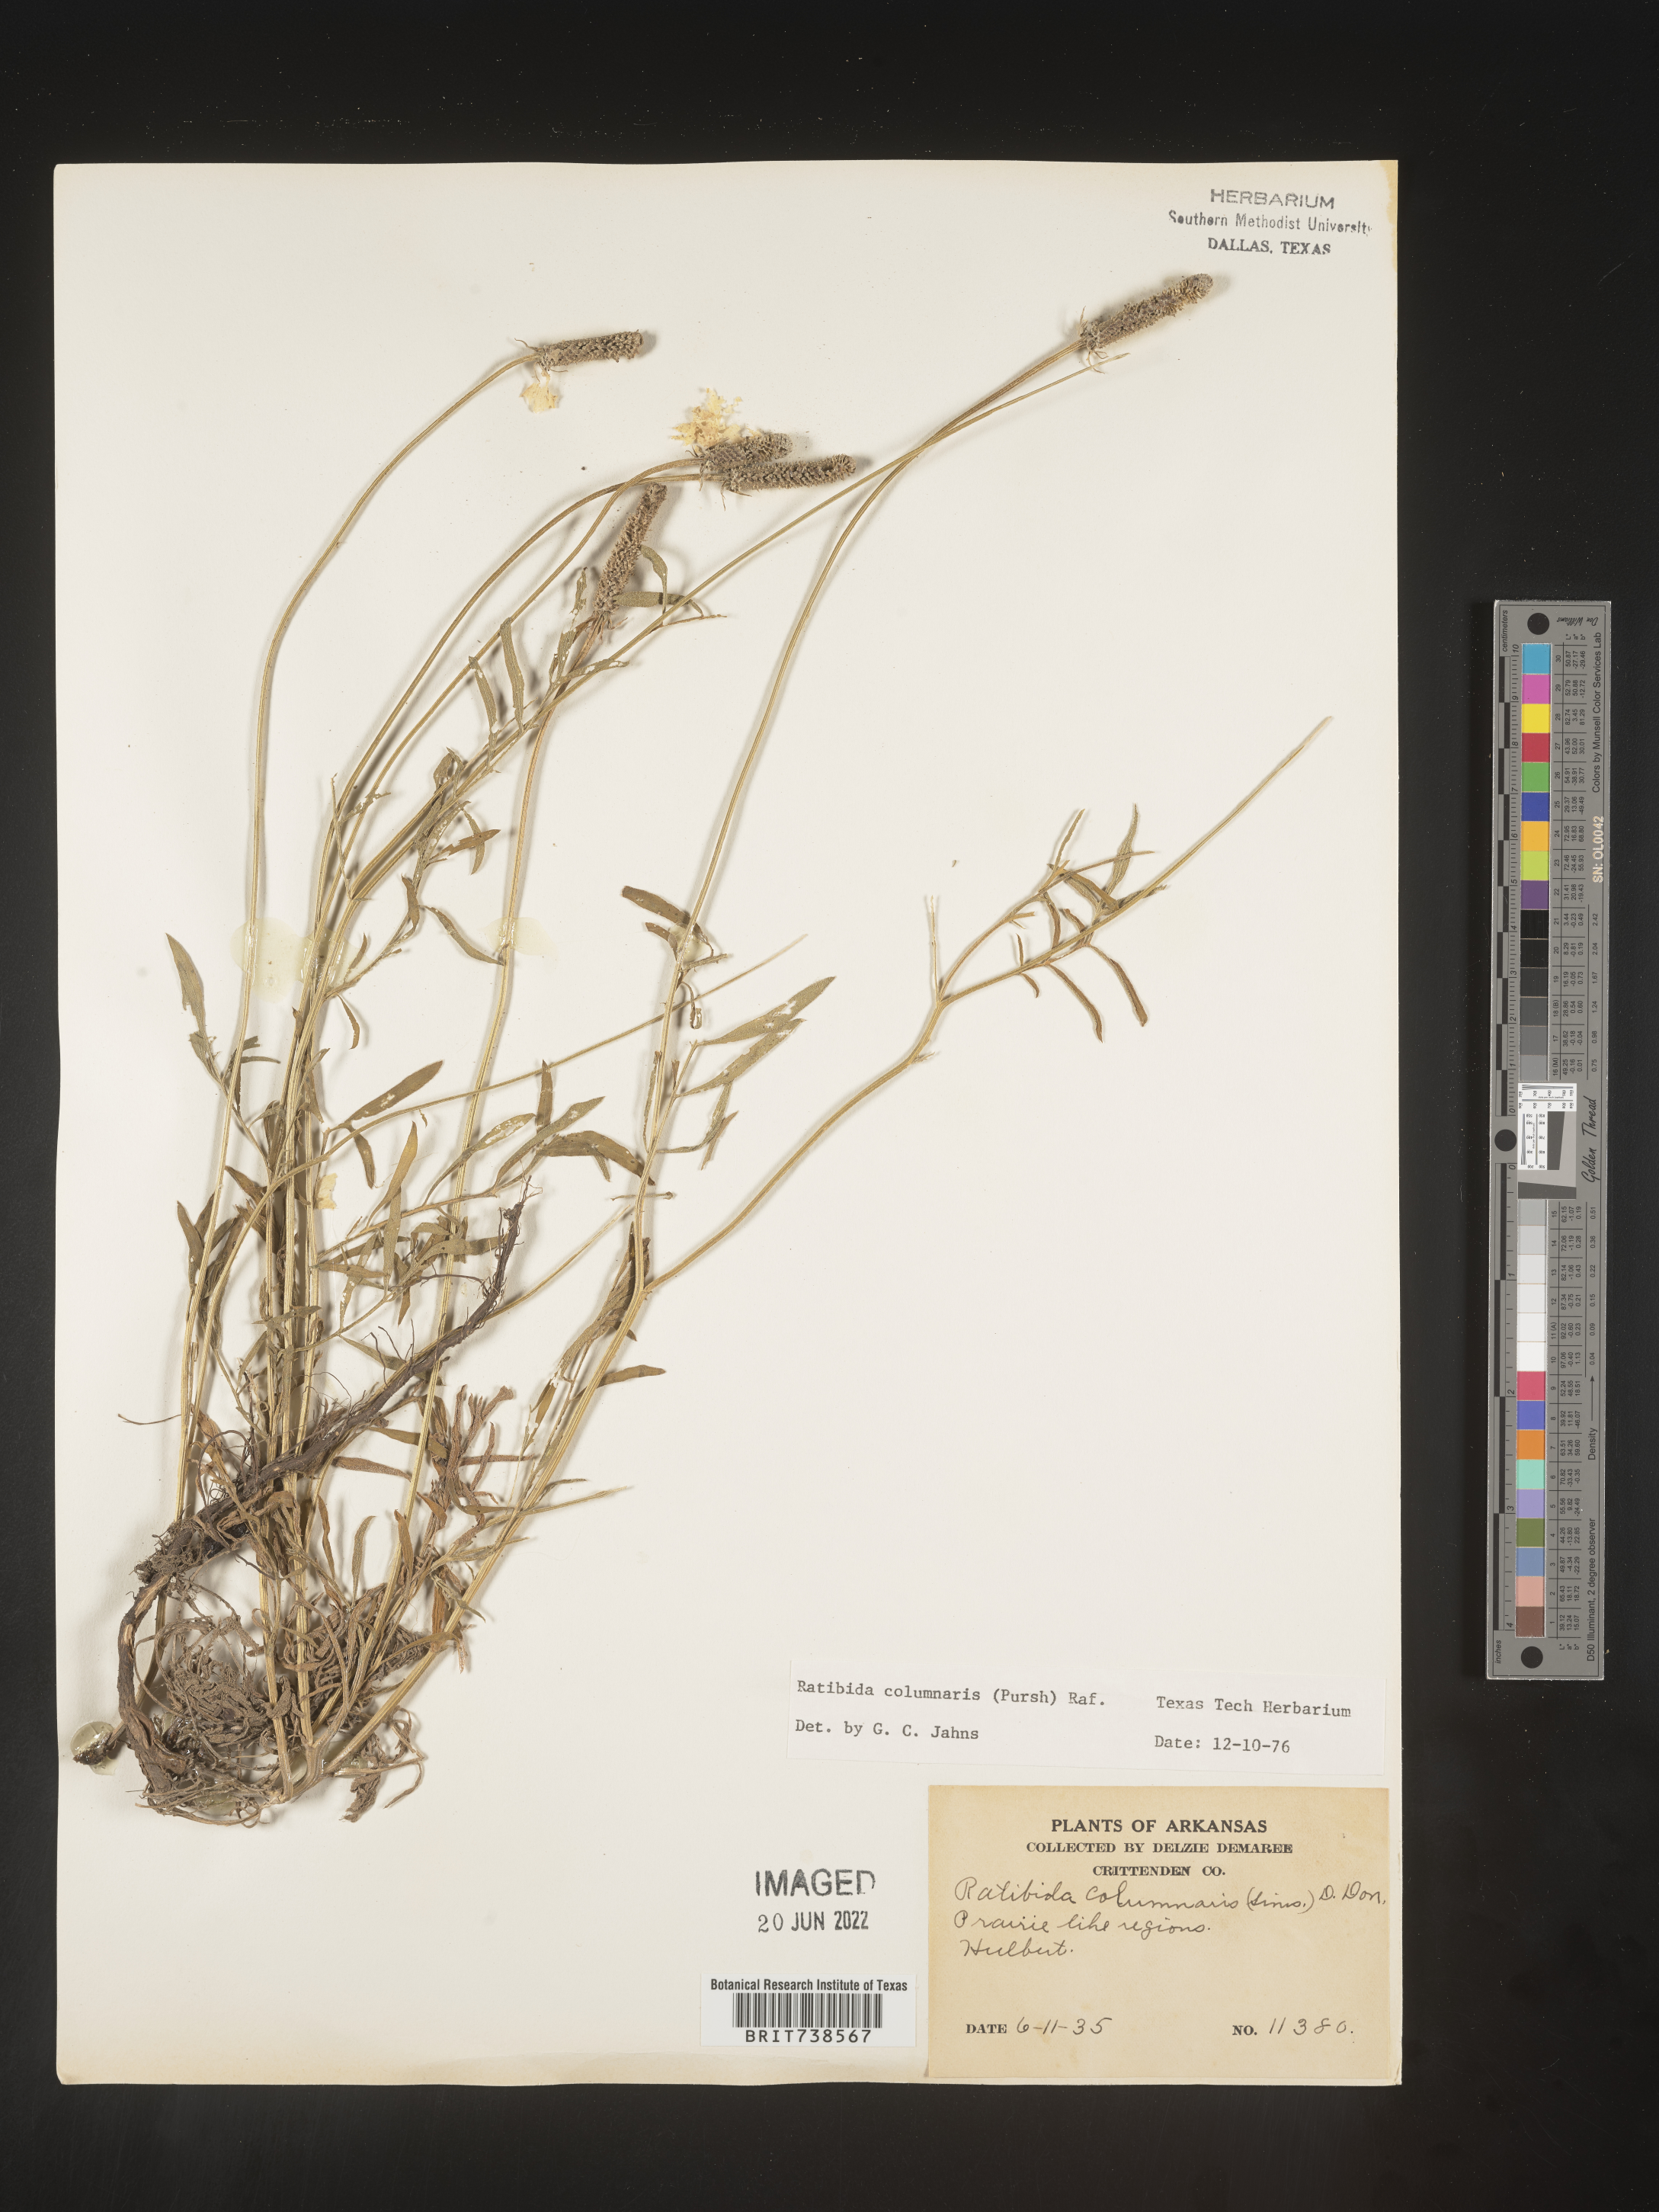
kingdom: Plantae
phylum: Tracheophyta
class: Magnoliopsida
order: Asterales
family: Asteraceae
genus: Ratibida
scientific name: Ratibida columnifera
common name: Prairie coneflower
